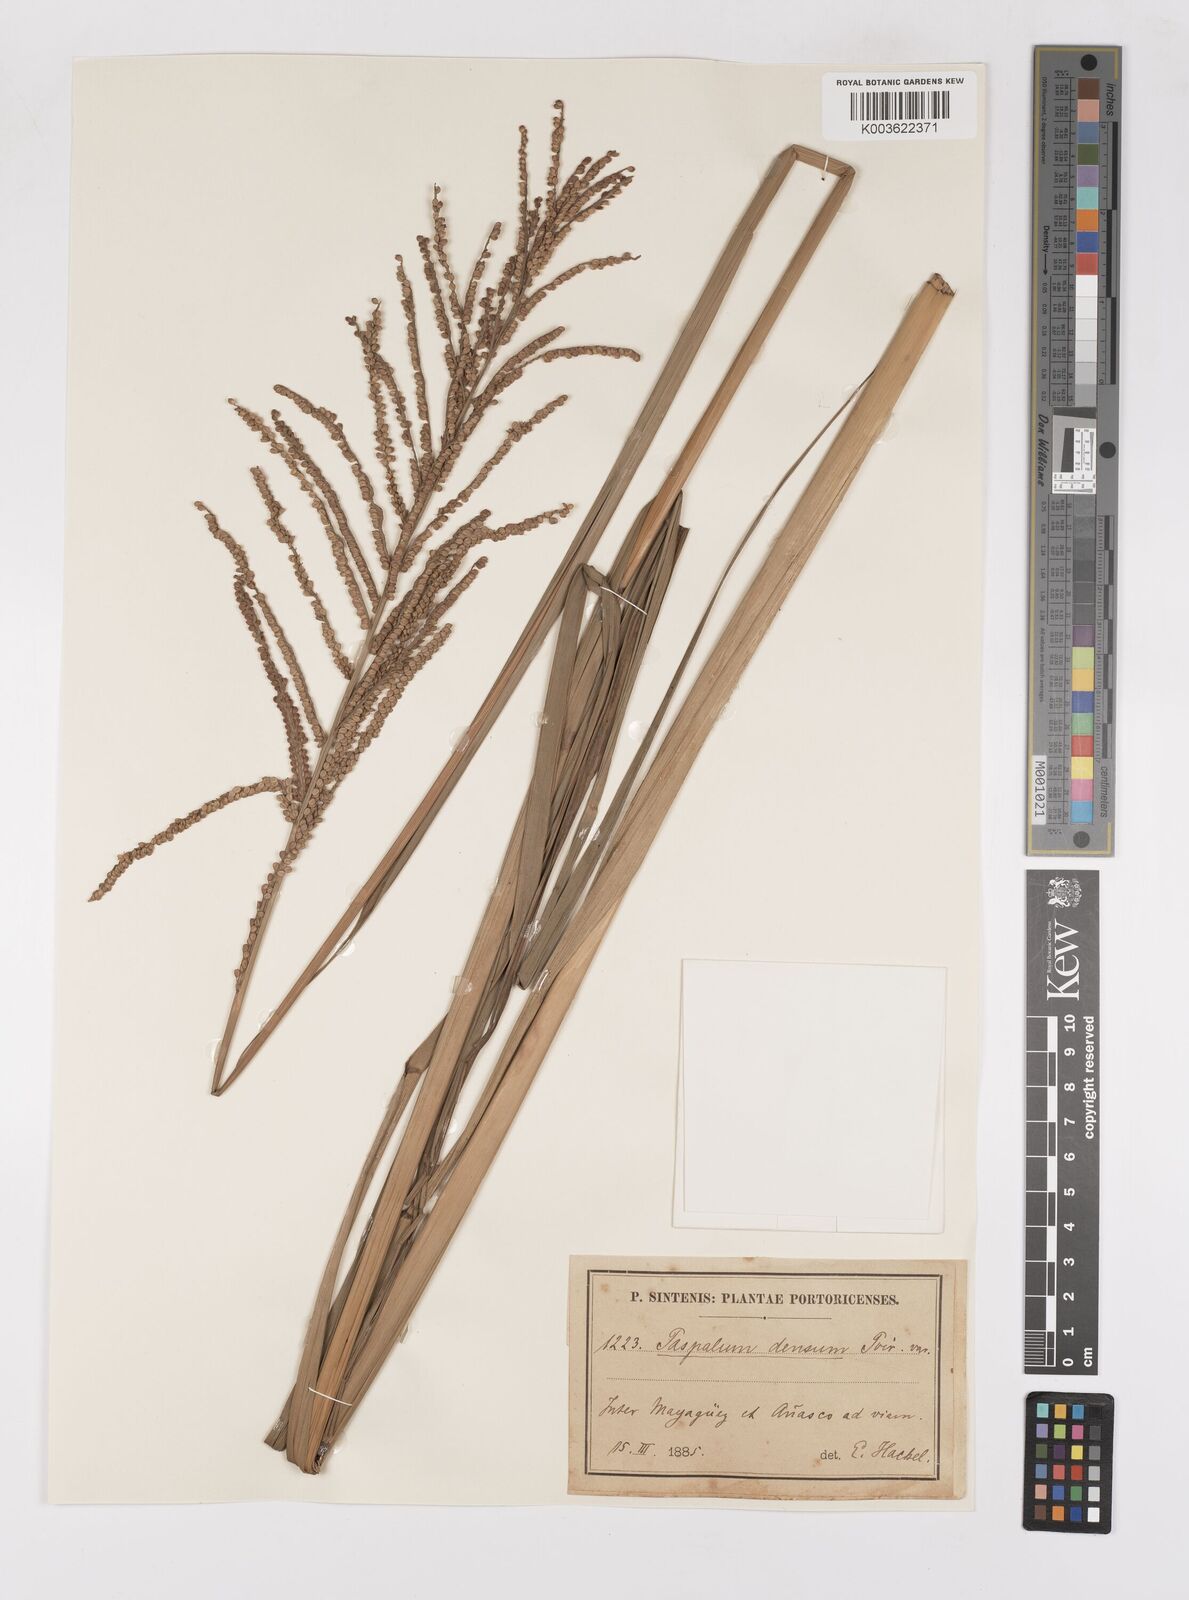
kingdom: Plantae
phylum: Tracheophyta
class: Liliopsida
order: Poales
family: Poaceae
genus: Paspalum
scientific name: Paspalum millegranum
